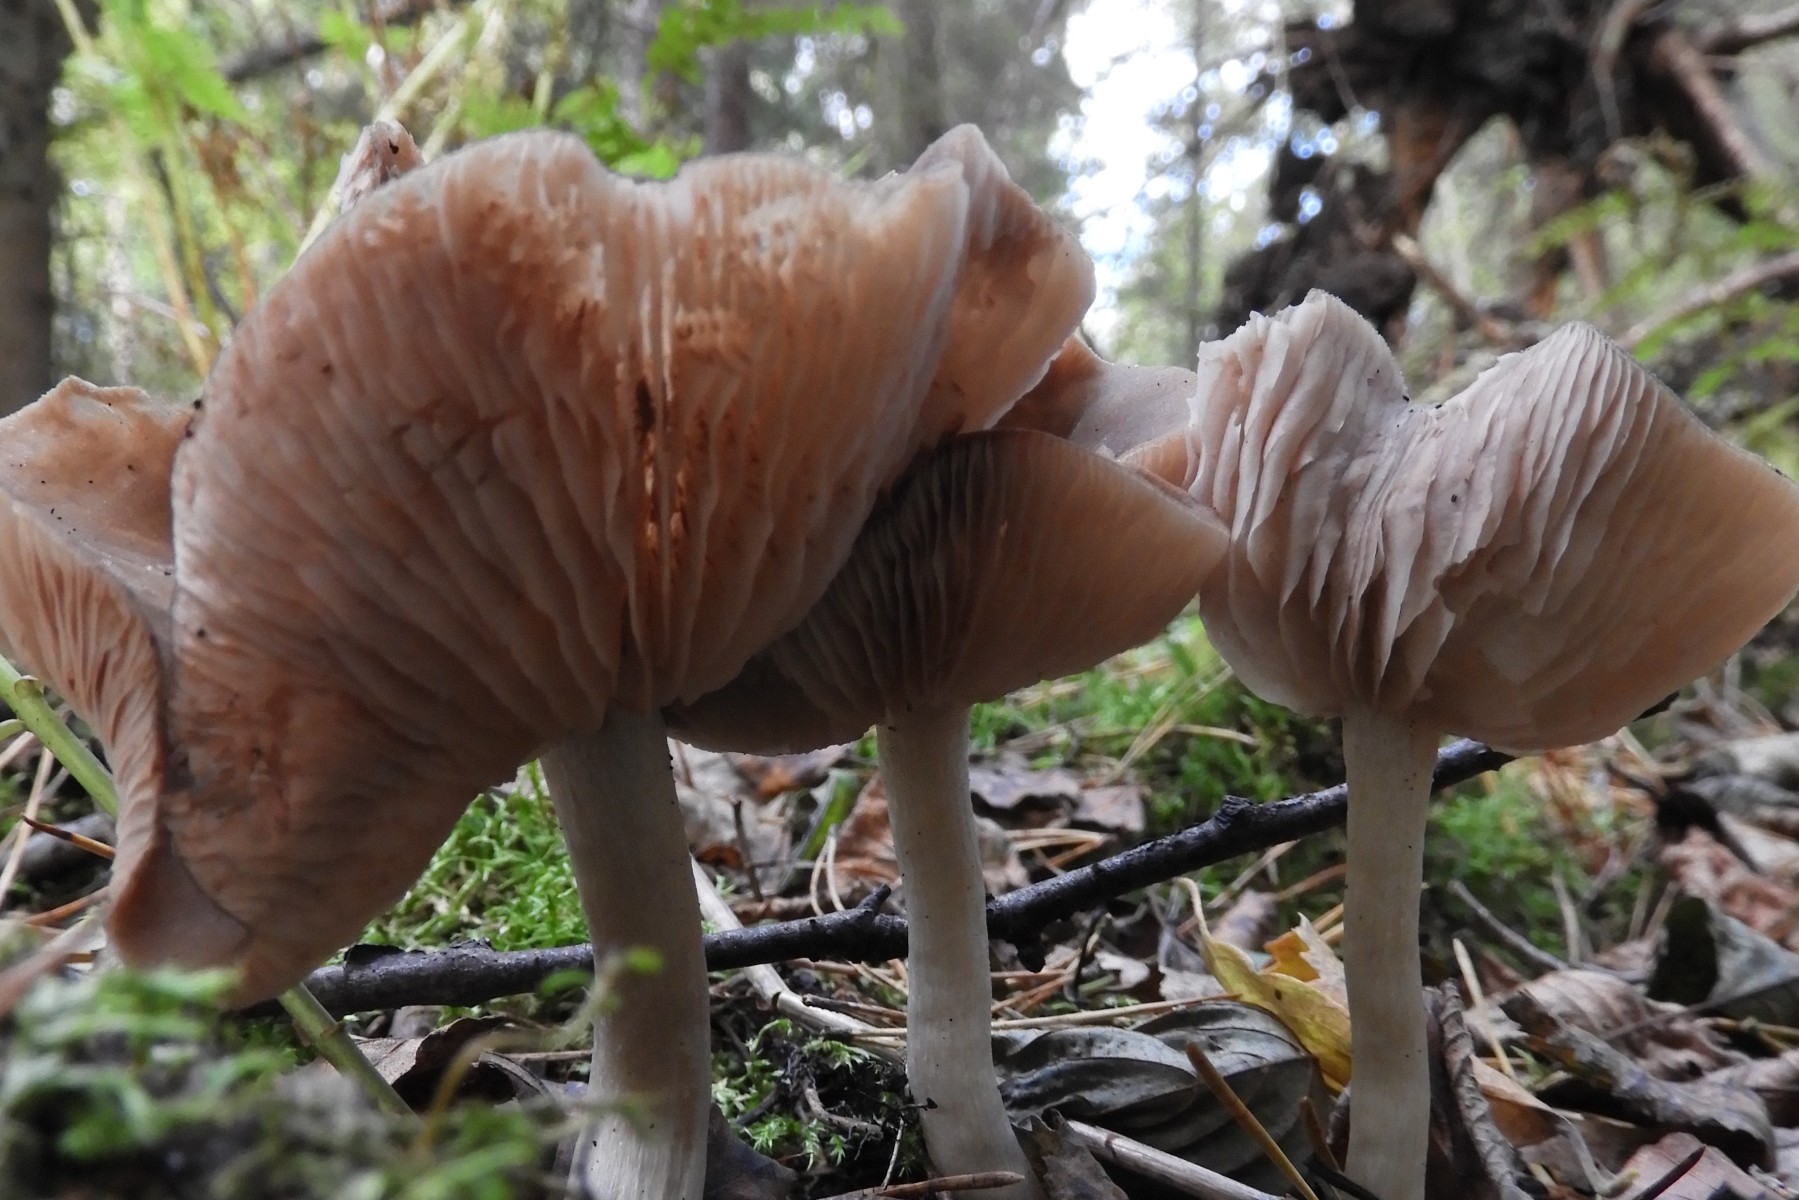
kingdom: Fungi
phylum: Basidiomycota
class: Agaricomycetes
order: Agaricales
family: Entolomataceae
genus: Entoloma
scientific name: Entoloma
